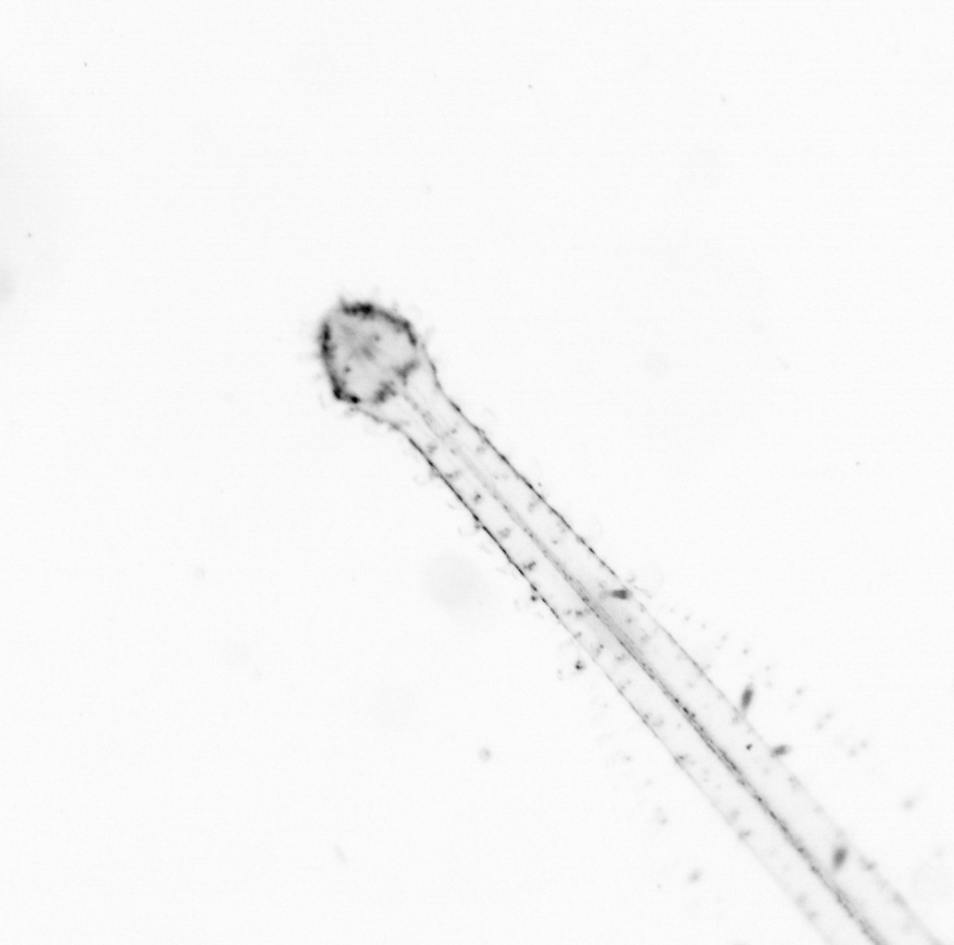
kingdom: Chromista
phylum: Ochrophyta
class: Bacillariophyceae
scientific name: Bacillariophyceae
